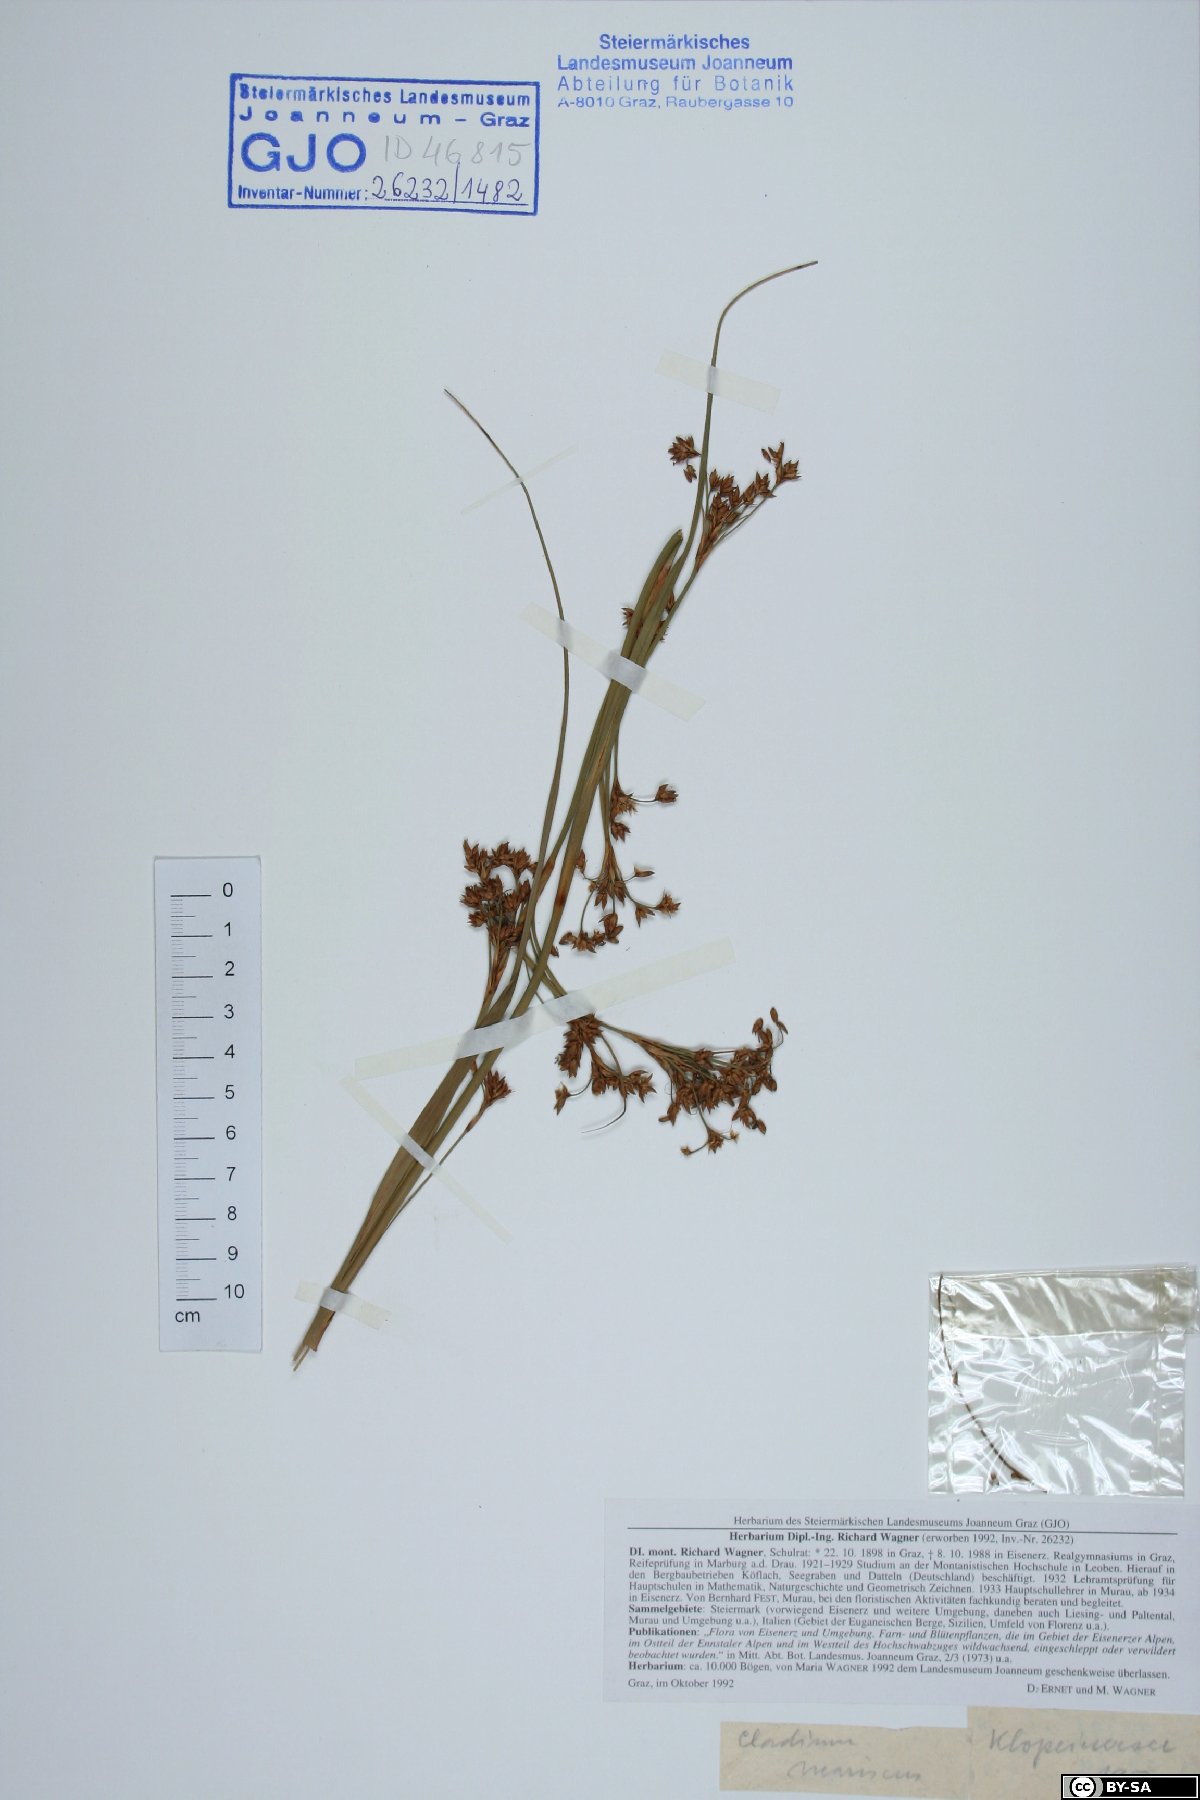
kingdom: Plantae
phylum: Tracheophyta
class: Liliopsida
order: Poales
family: Cyperaceae
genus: Cladium
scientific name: Cladium mariscus
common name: Great fen-sedge
